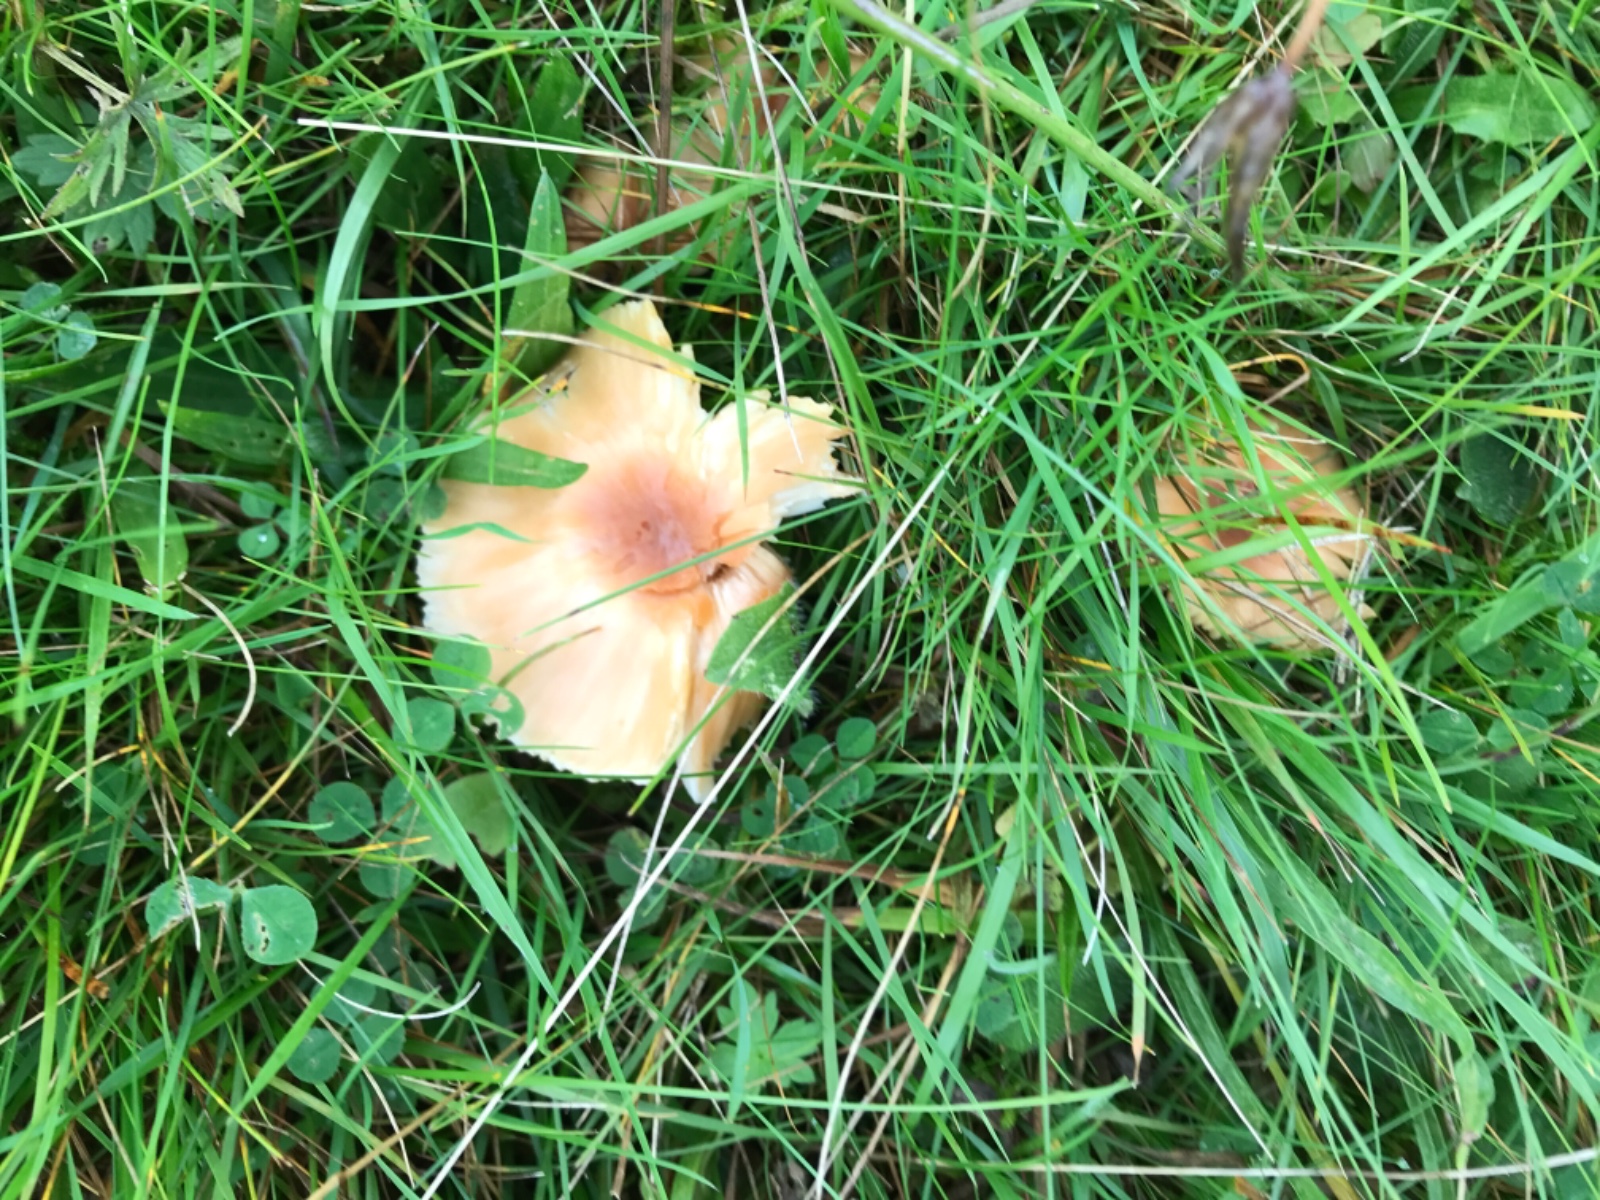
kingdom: Fungi
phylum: Basidiomycota
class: Agaricomycetes
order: Agaricales
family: Hygrophoraceae
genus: Cuphophyllus
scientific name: Cuphophyllus pratensis
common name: eng-vokshat
